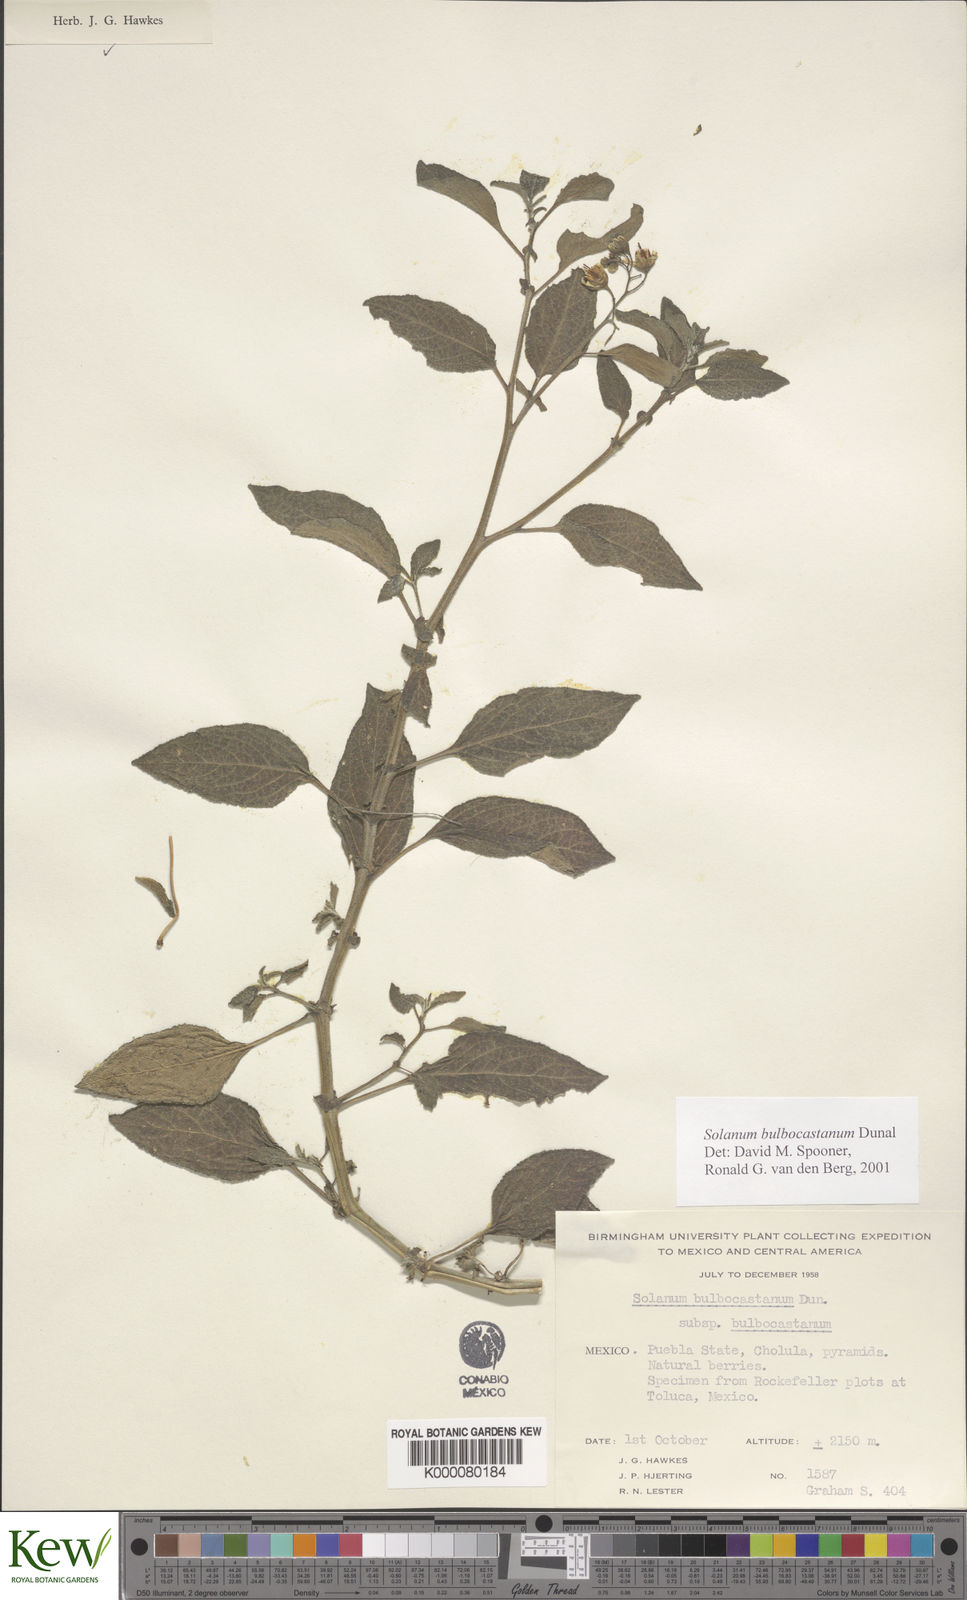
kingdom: Plantae
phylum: Tracheophyta
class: Magnoliopsida
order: Solanales
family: Solanaceae
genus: Solanum
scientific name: Solanum bulbocastanum
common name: Ornamental nightshade
